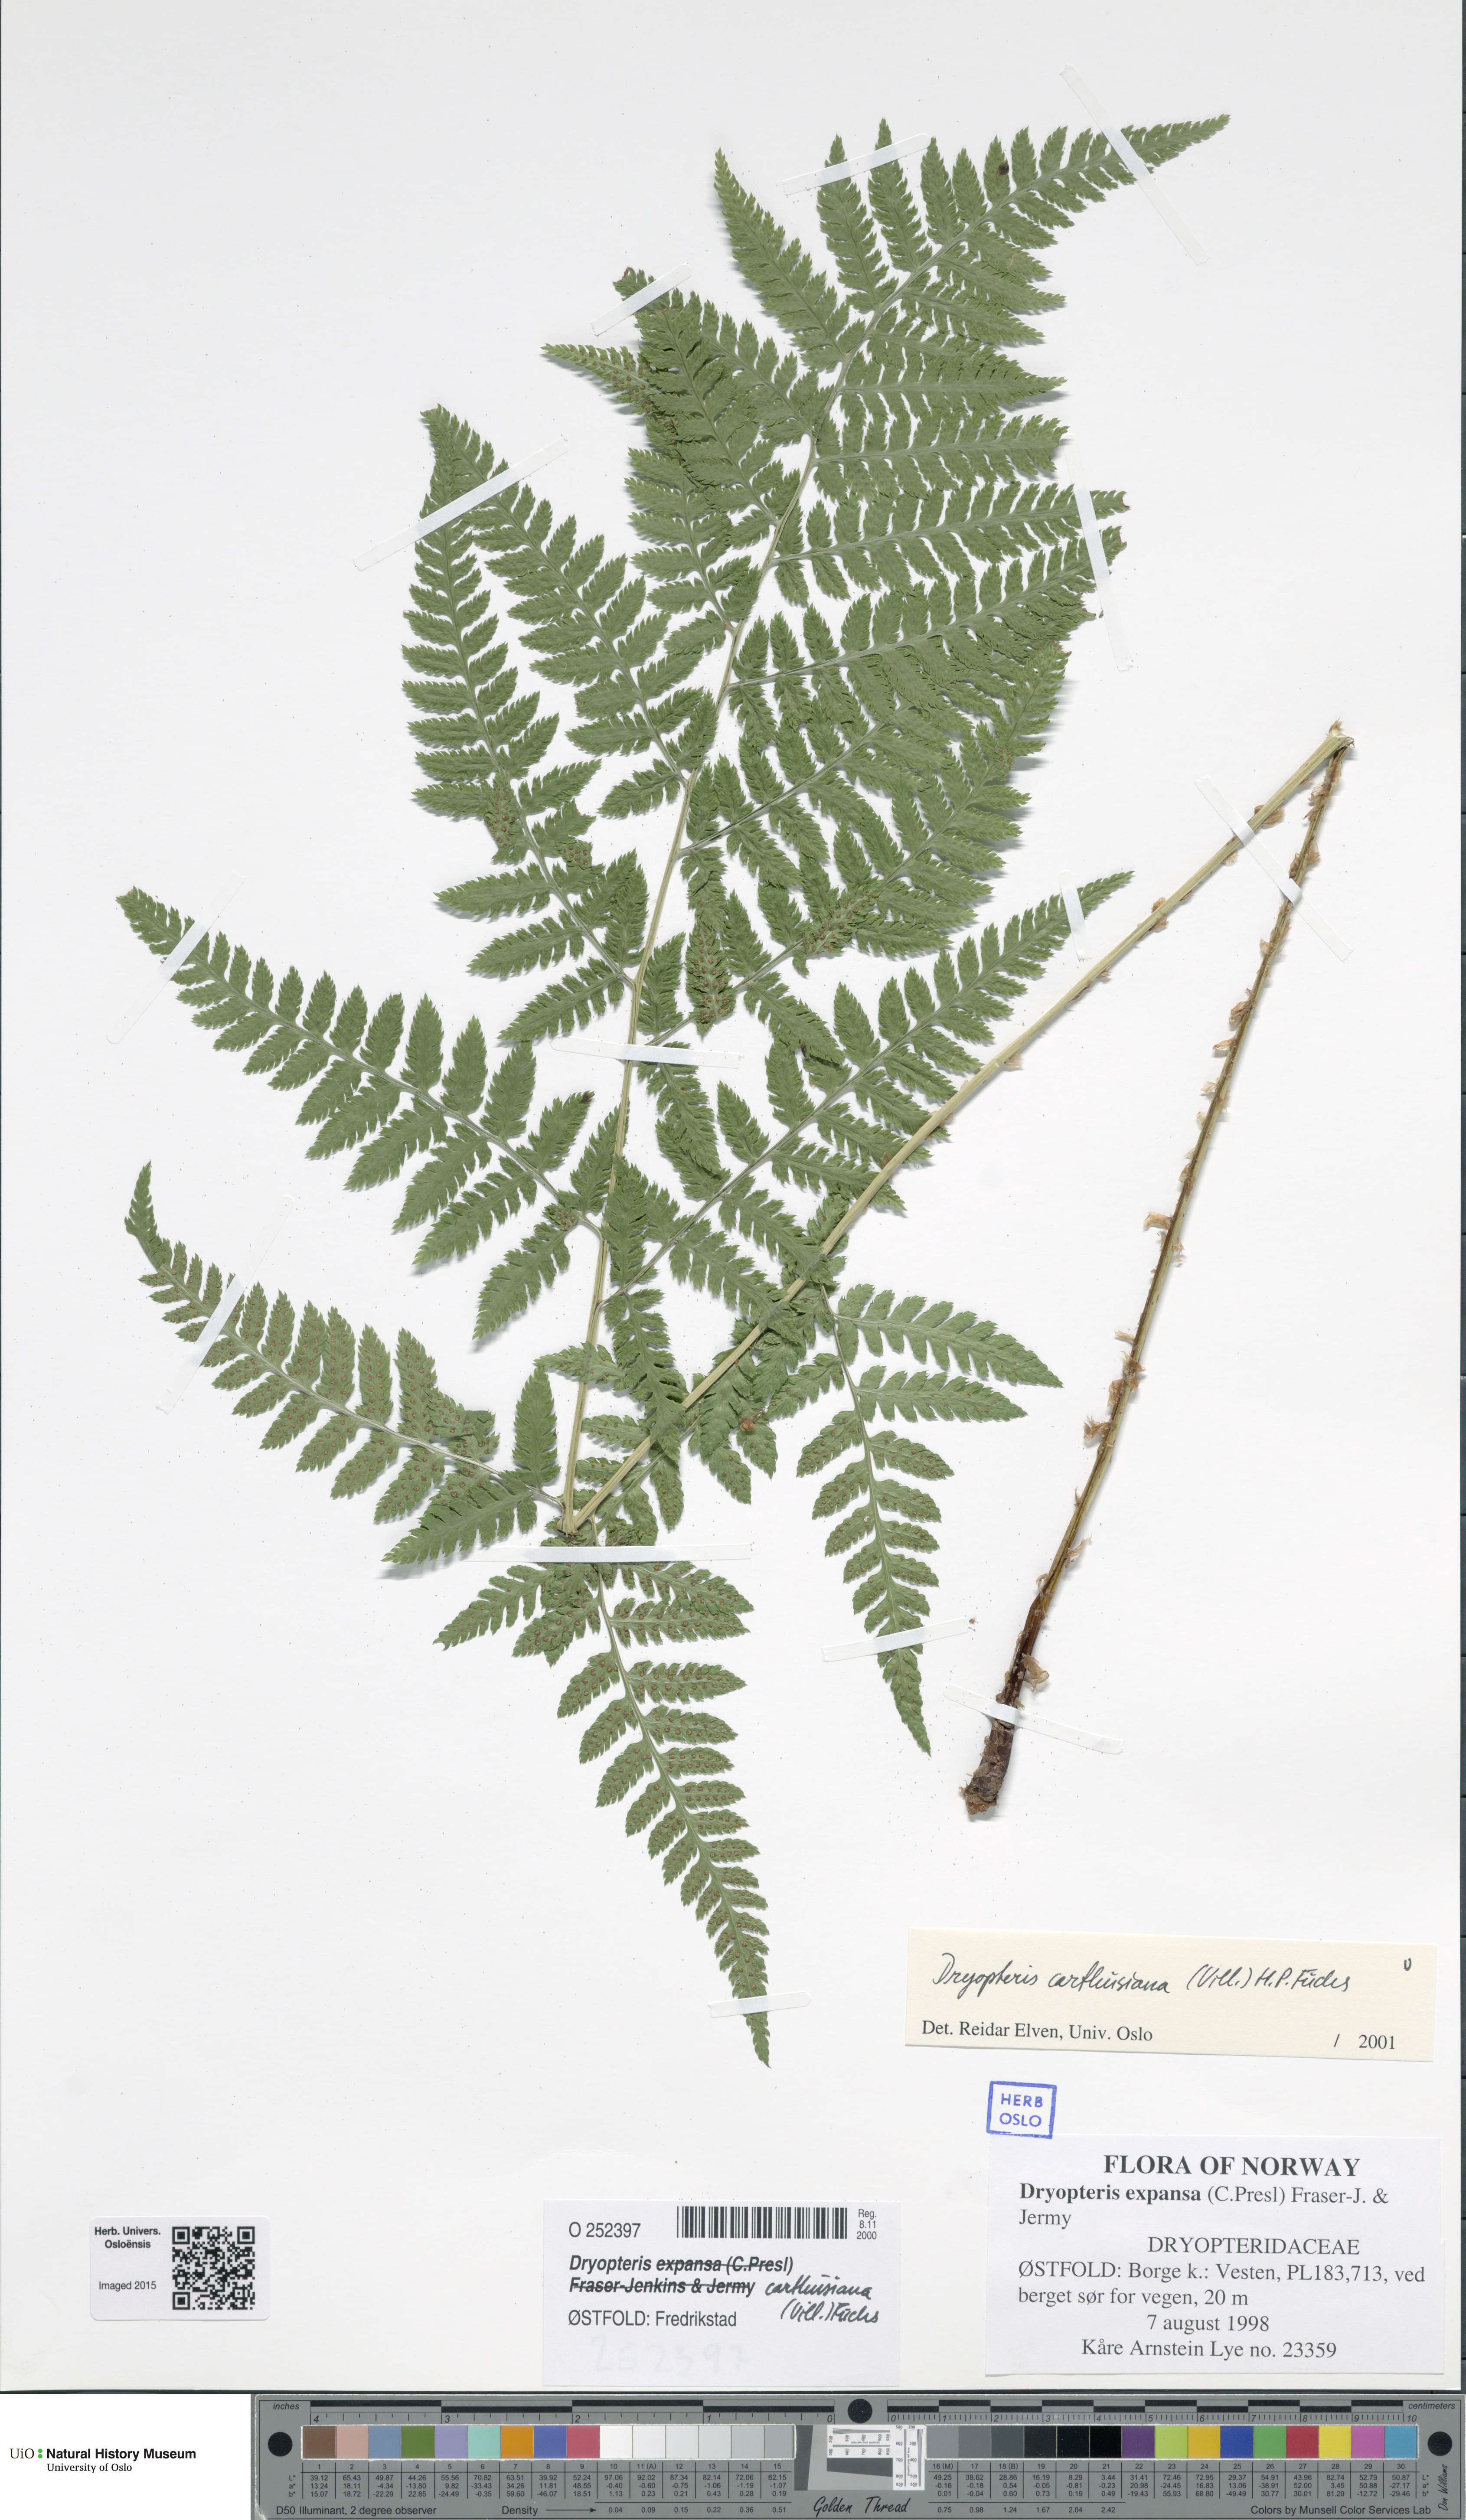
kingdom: Plantae
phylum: Tracheophyta
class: Polypodiopsida
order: Polypodiales
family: Dryopteridaceae
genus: Dryopteris
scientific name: Dryopteris carthusiana
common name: Narrow buckler-fern
